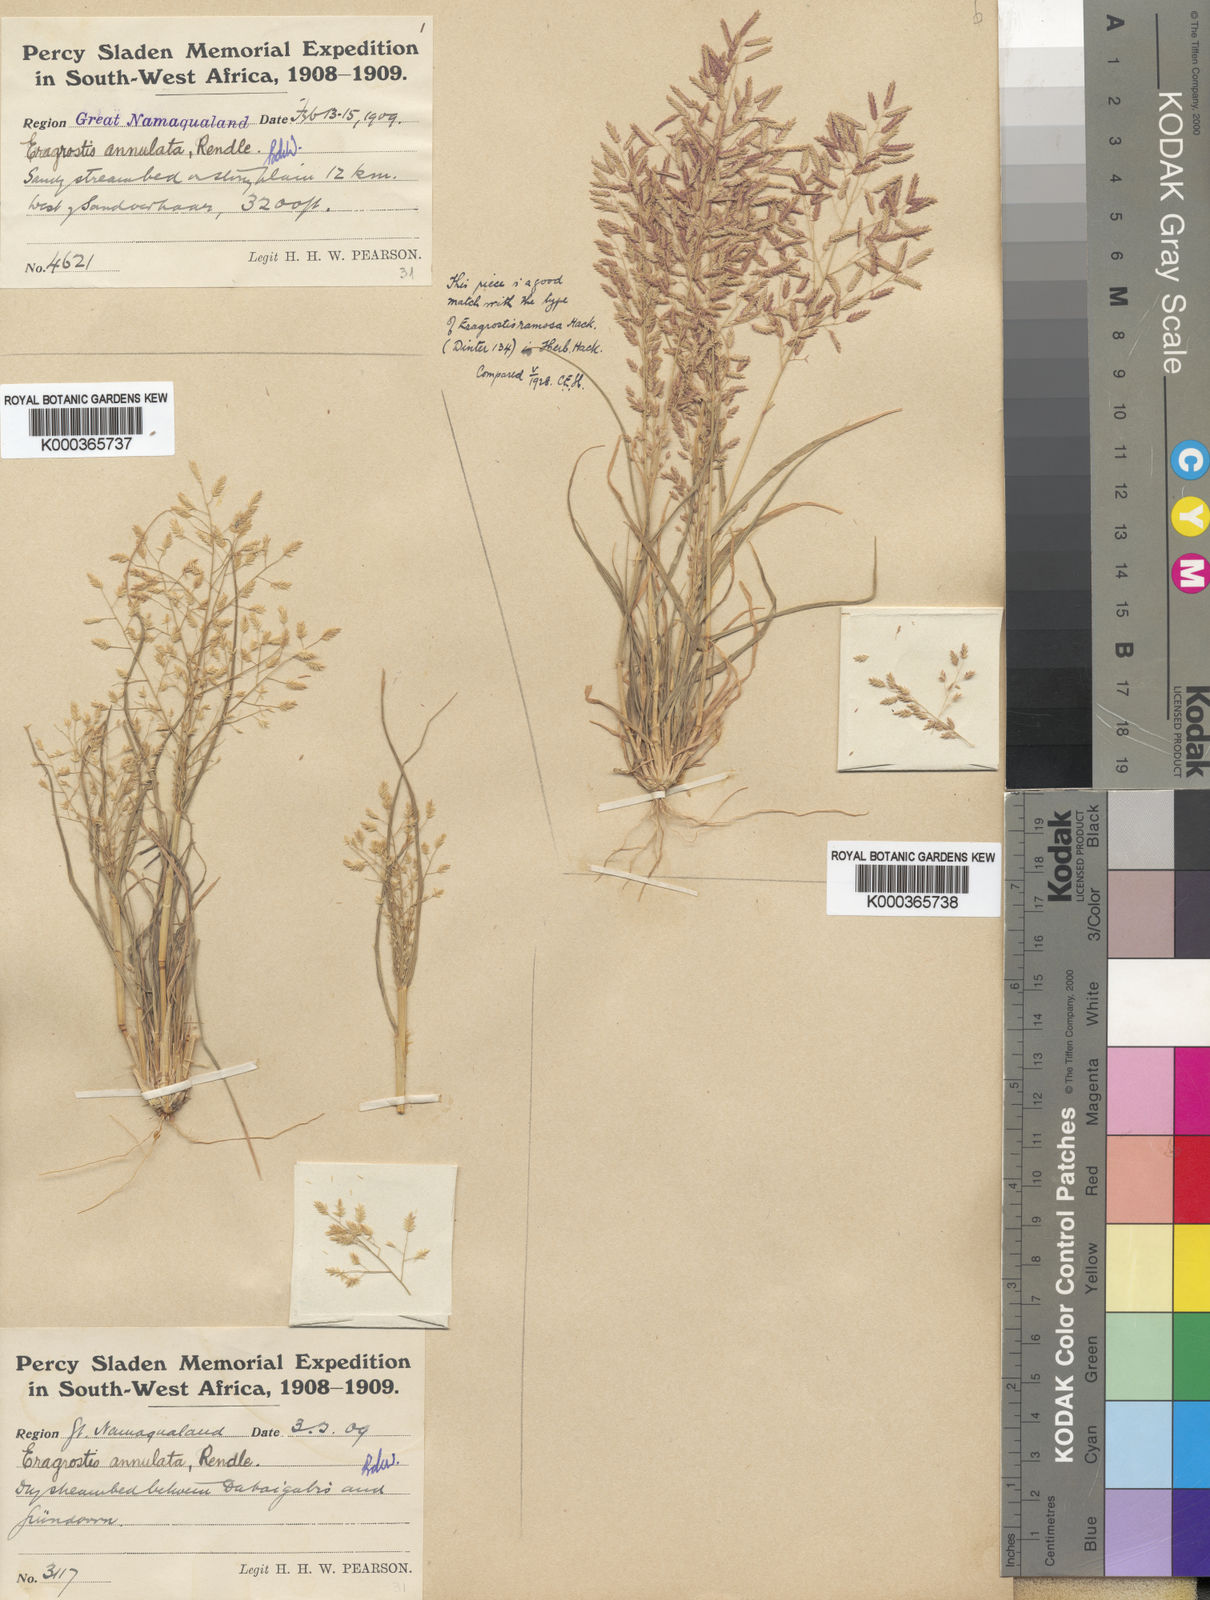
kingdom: Plantae
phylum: Tracheophyta
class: Liliopsida
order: Poales
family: Poaceae
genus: Eragrostis
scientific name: Eragrostis annulata
